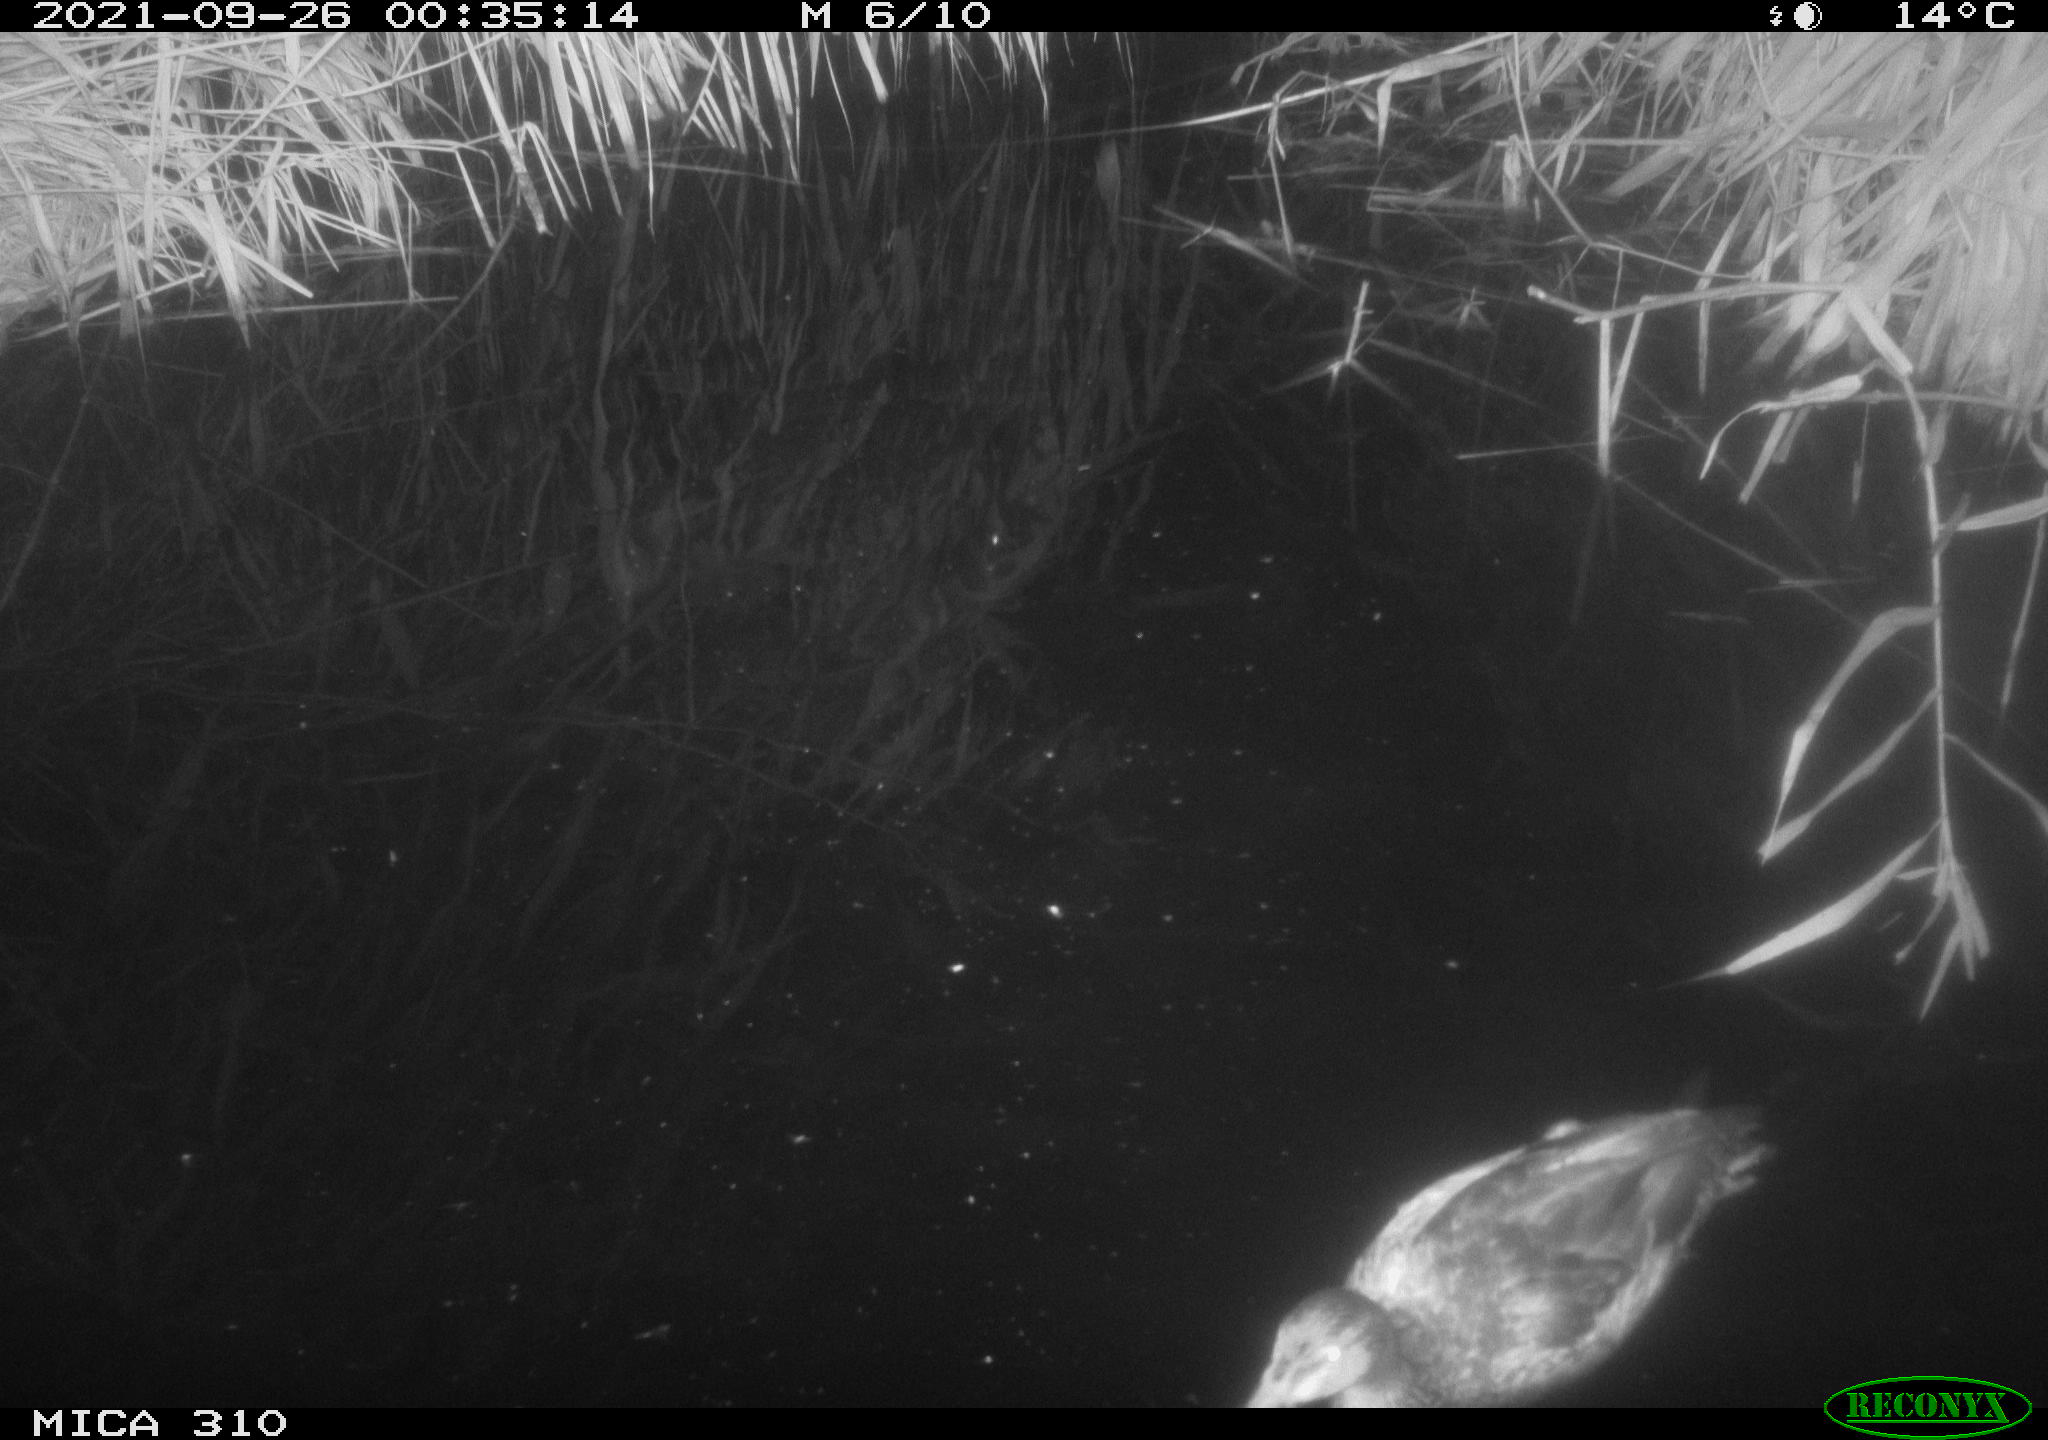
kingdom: Animalia
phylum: Chordata
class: Aves
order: Anseriformes
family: Anatidae
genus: Anas
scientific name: Anas platyrhynchos
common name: Mallard
